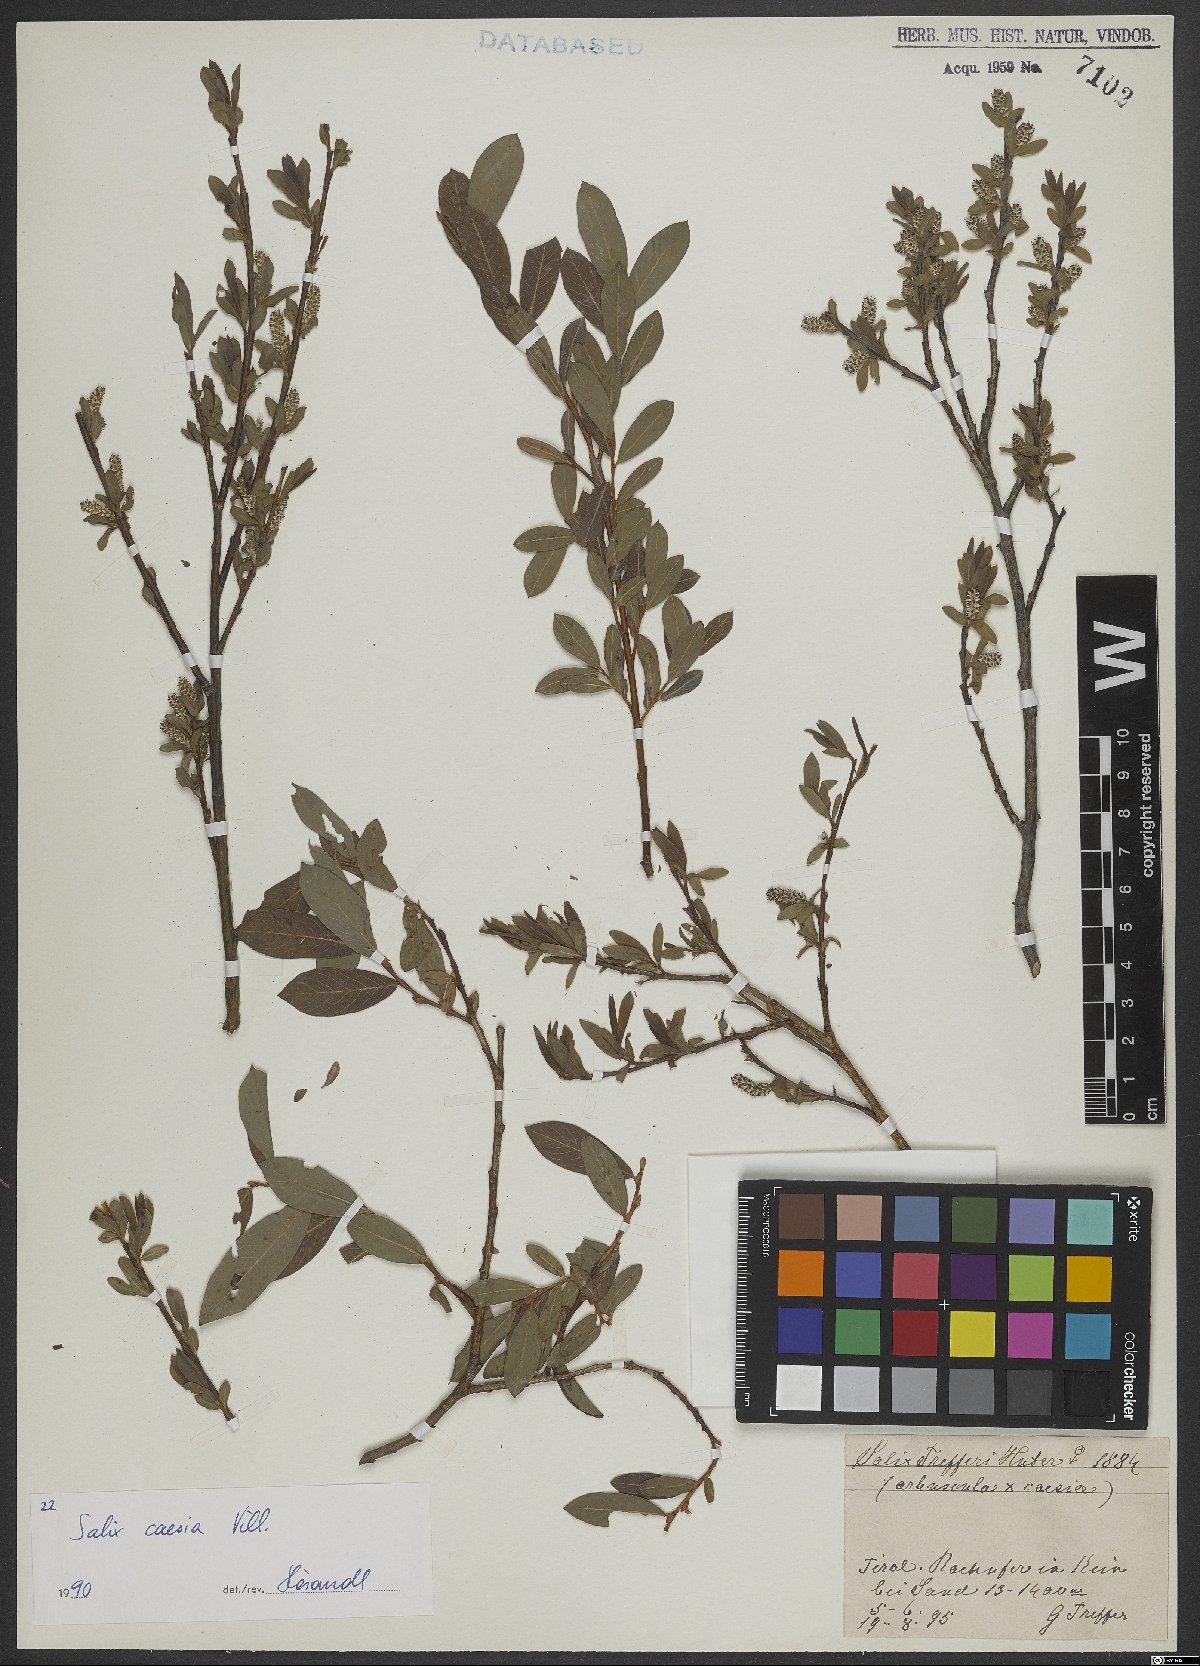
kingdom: Plantae
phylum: Tracheophyta
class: Magnoliopsida
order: Malpighiales
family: Salicaceae
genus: Salix
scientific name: Salix caesia
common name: Blue willow
